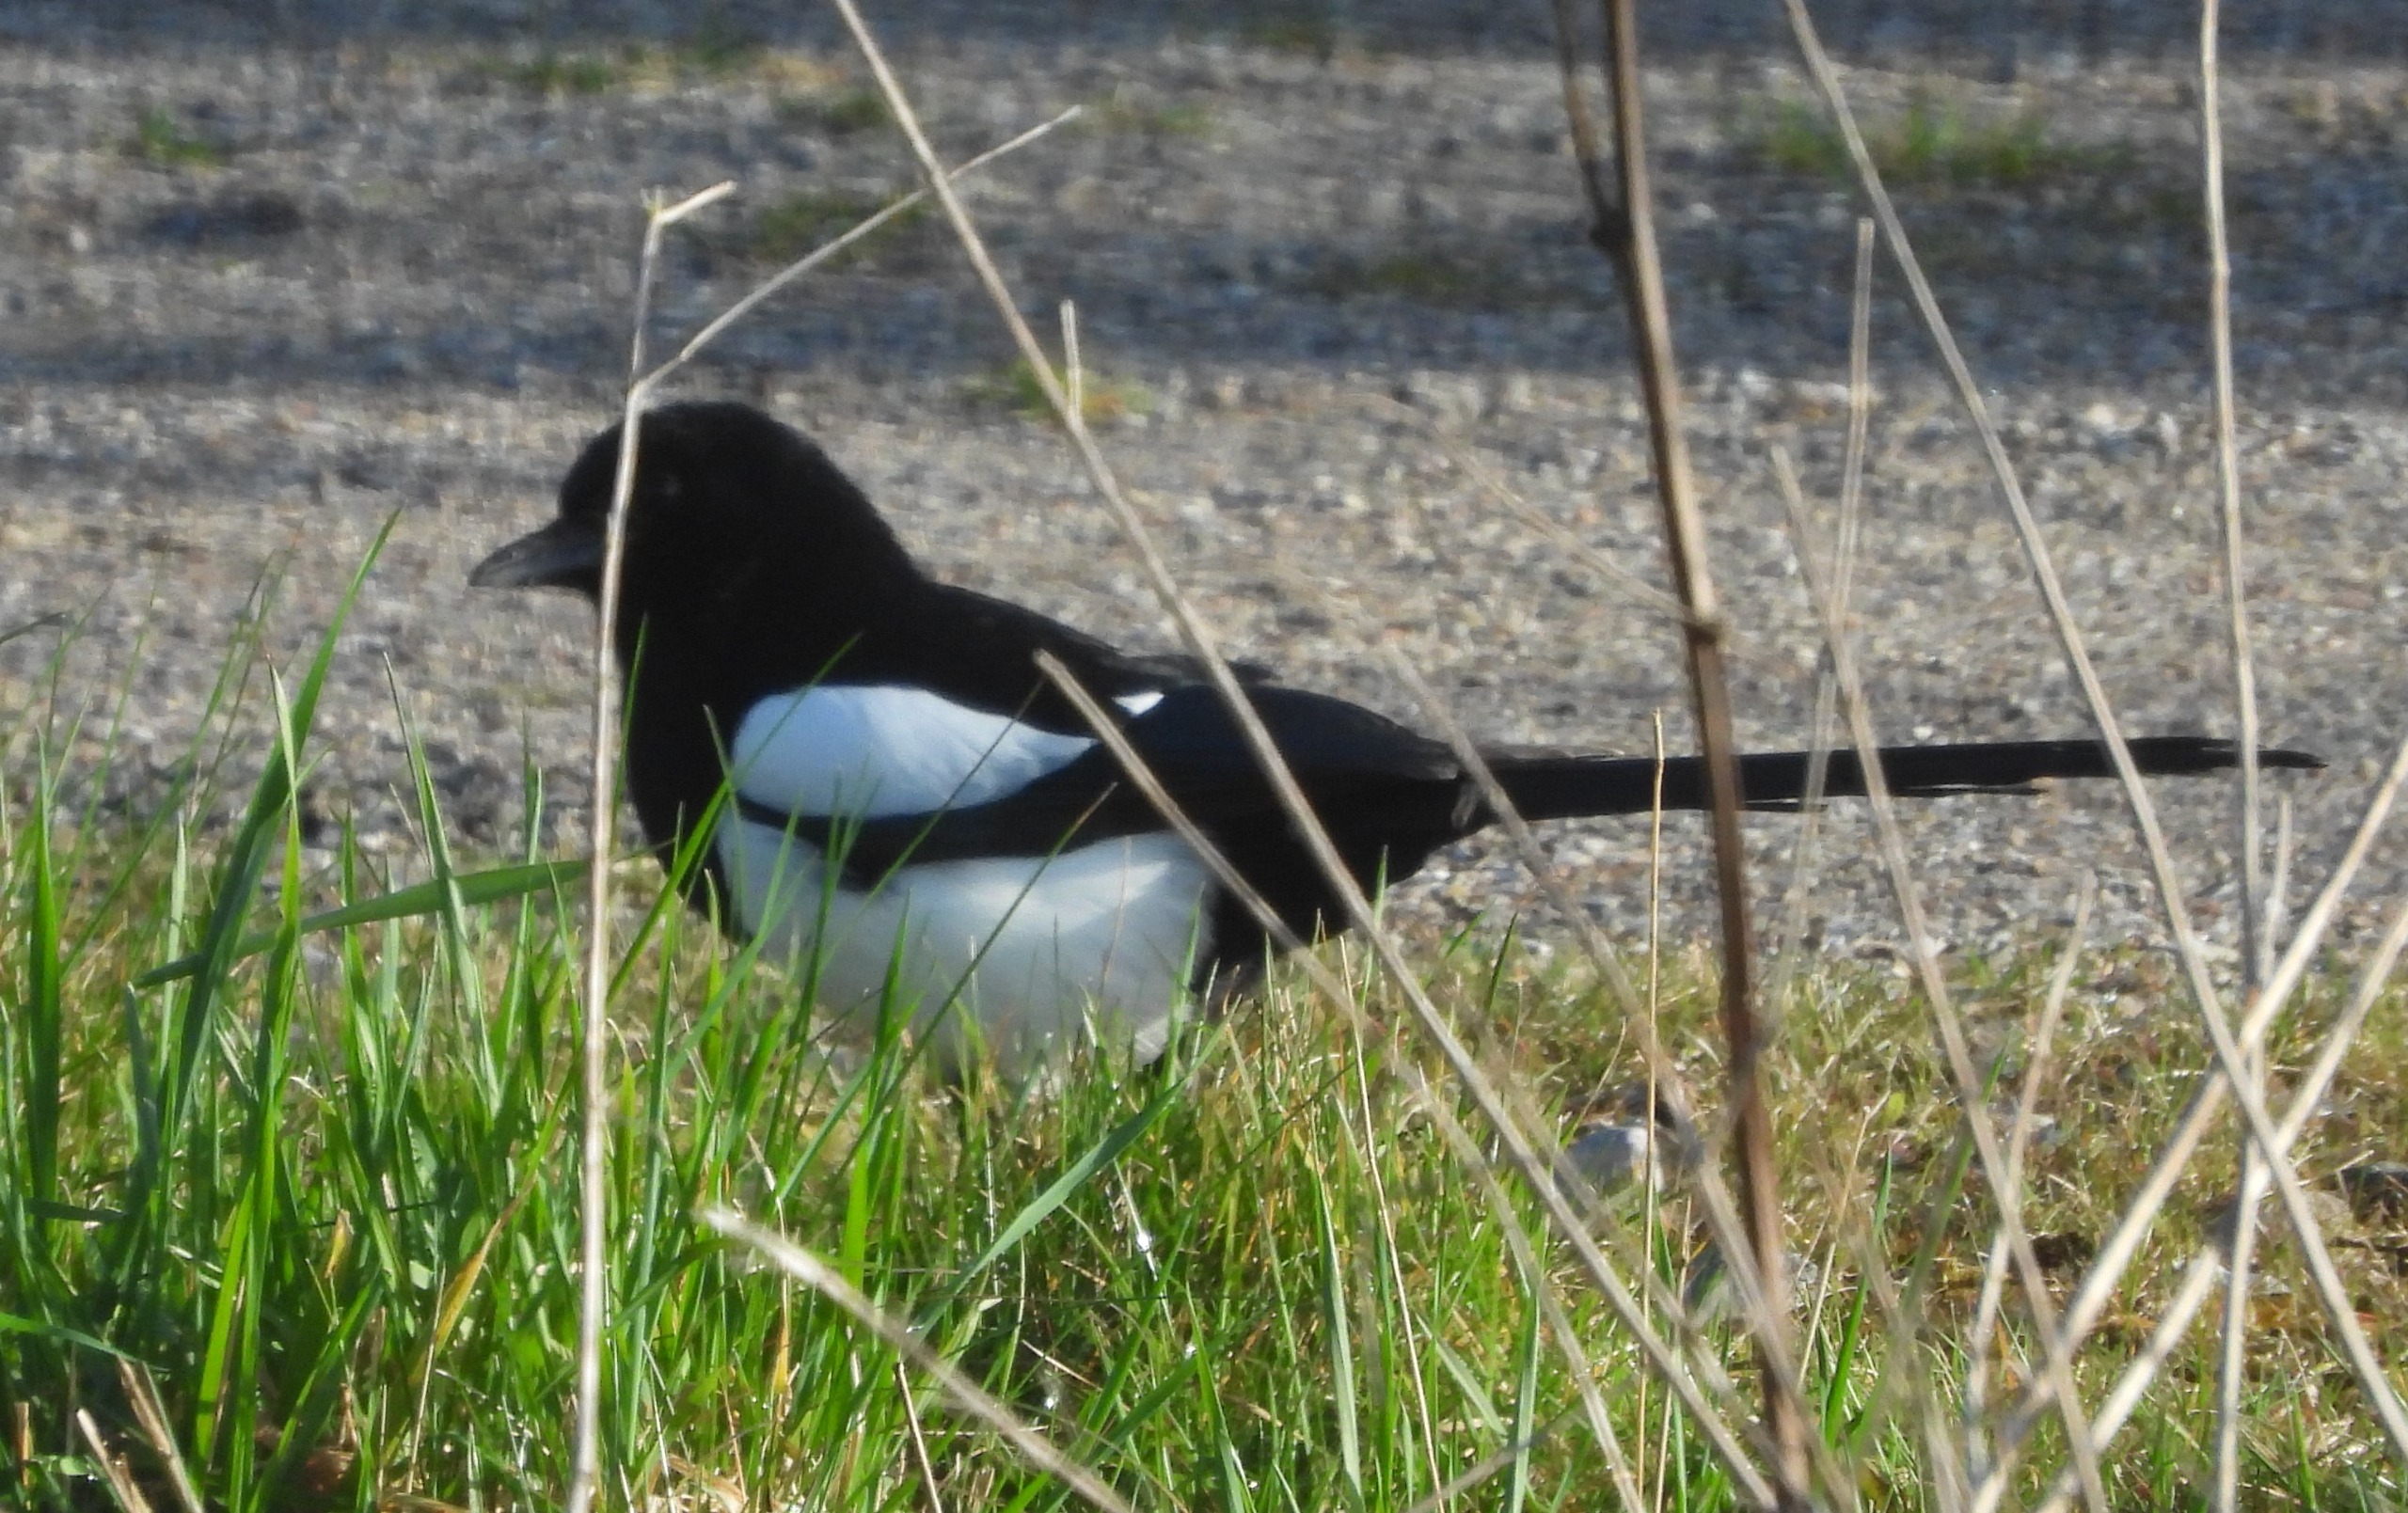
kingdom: Animalia
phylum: Chordata
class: Aves
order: Passeriformes
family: Corvidae
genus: Pica
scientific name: Pica pica
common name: Husskade
